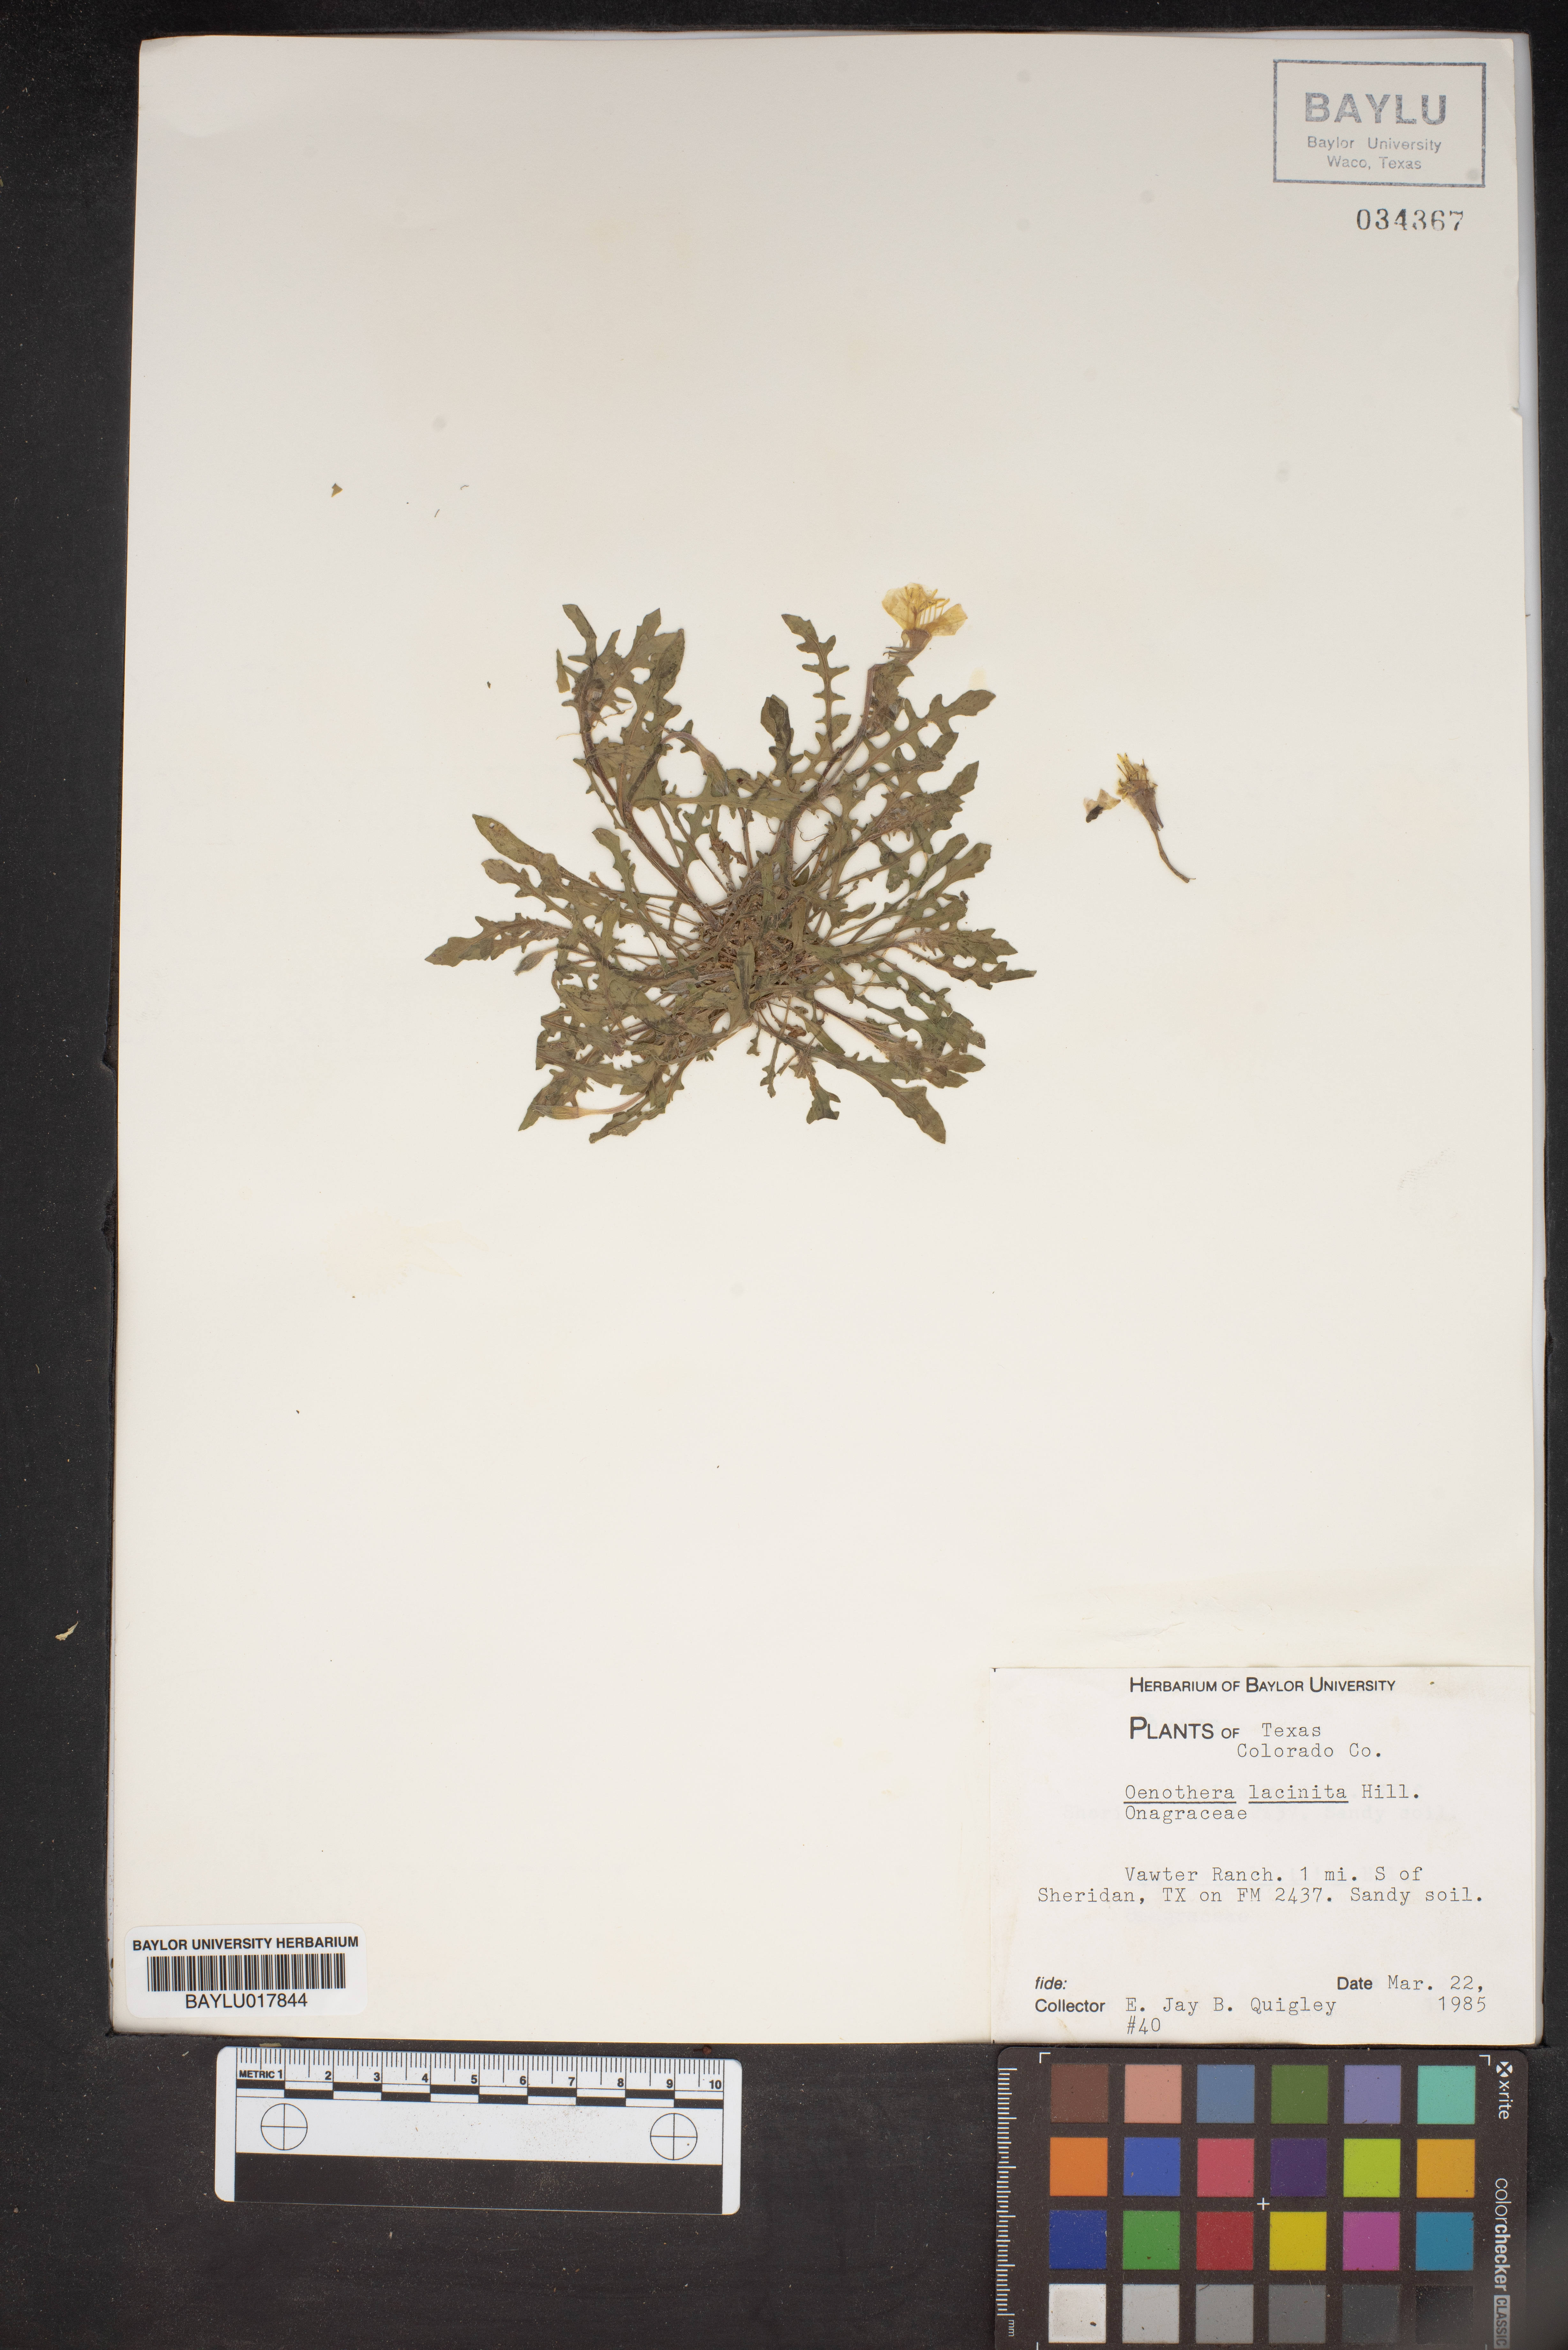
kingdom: Plantae
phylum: Tracheophyta
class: Magnoliopsida
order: Myrtales
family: Onagraceae
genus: Oenothera
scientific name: Oenothera laciniata
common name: Cut-leaved evening-primrose
